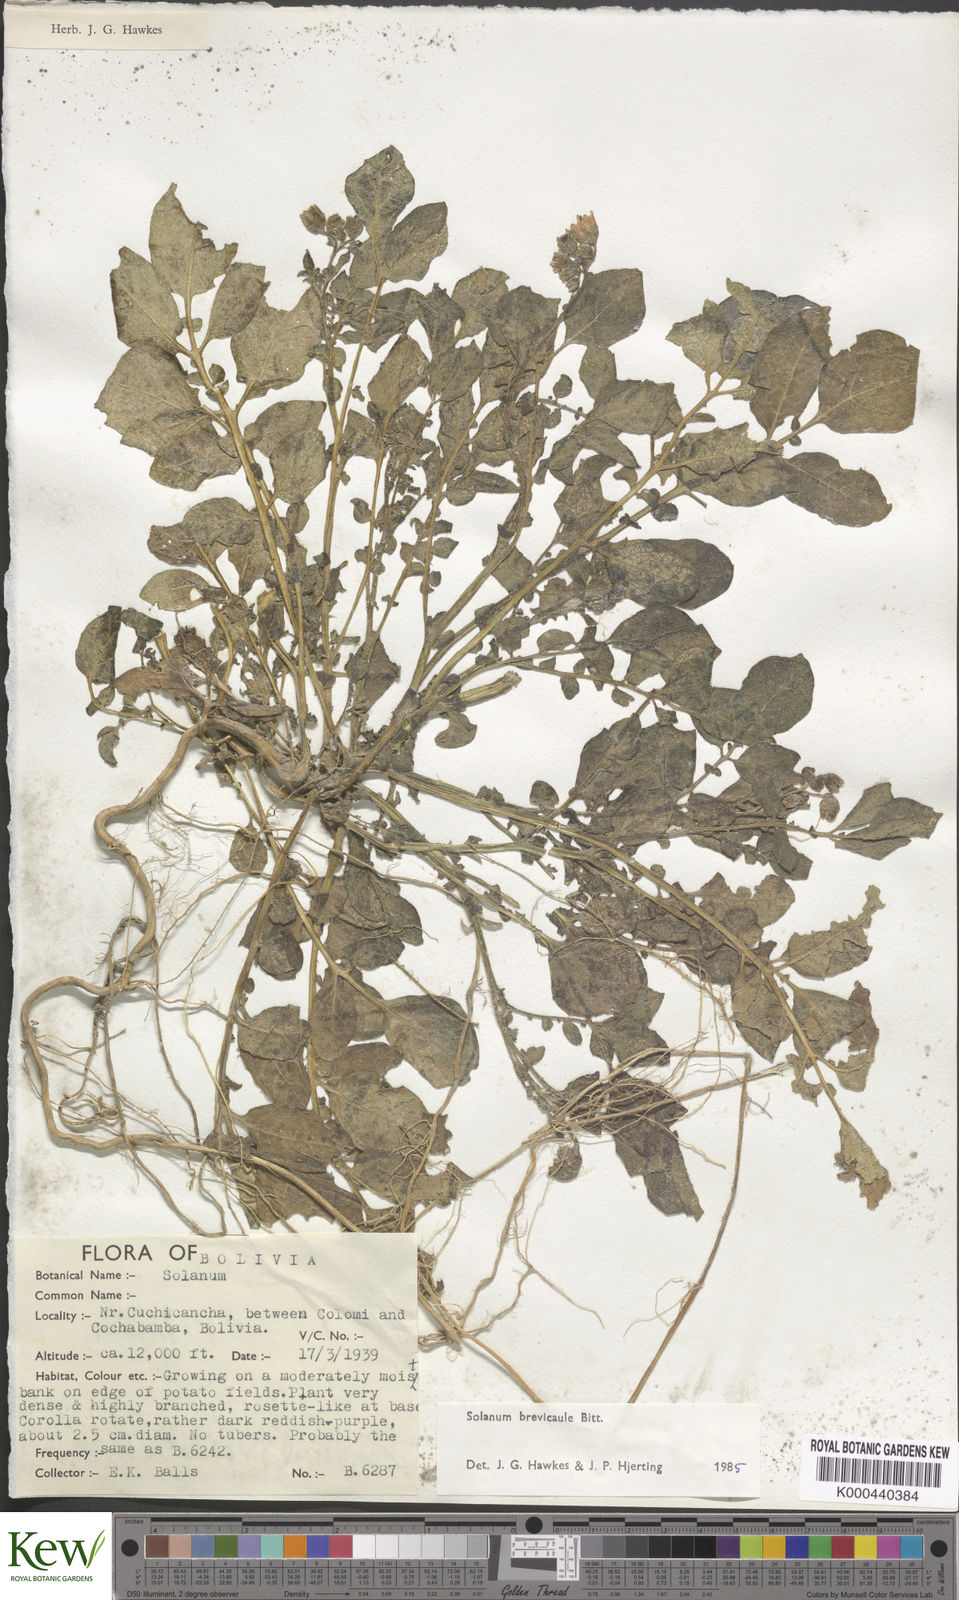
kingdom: Plantae
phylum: Tracheophyta
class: Magnoliopsida
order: Solanales
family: Solanaceae
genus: Solanum
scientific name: Solanum brevicaule
